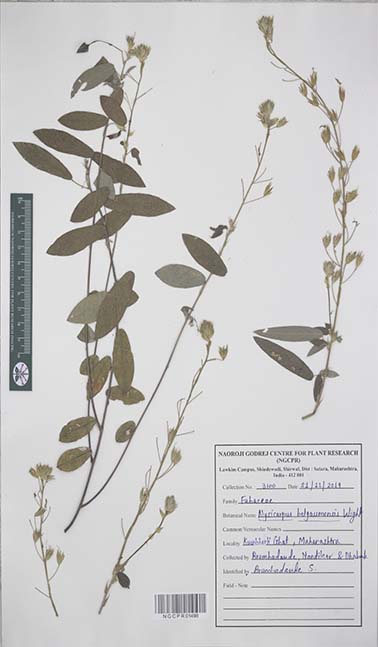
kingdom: Plantae
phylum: Tracheophyta
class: Magnoliopsida
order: Fabales
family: Fabaceae
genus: Alysicarpus
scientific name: Alysicarpus belgaumensis
